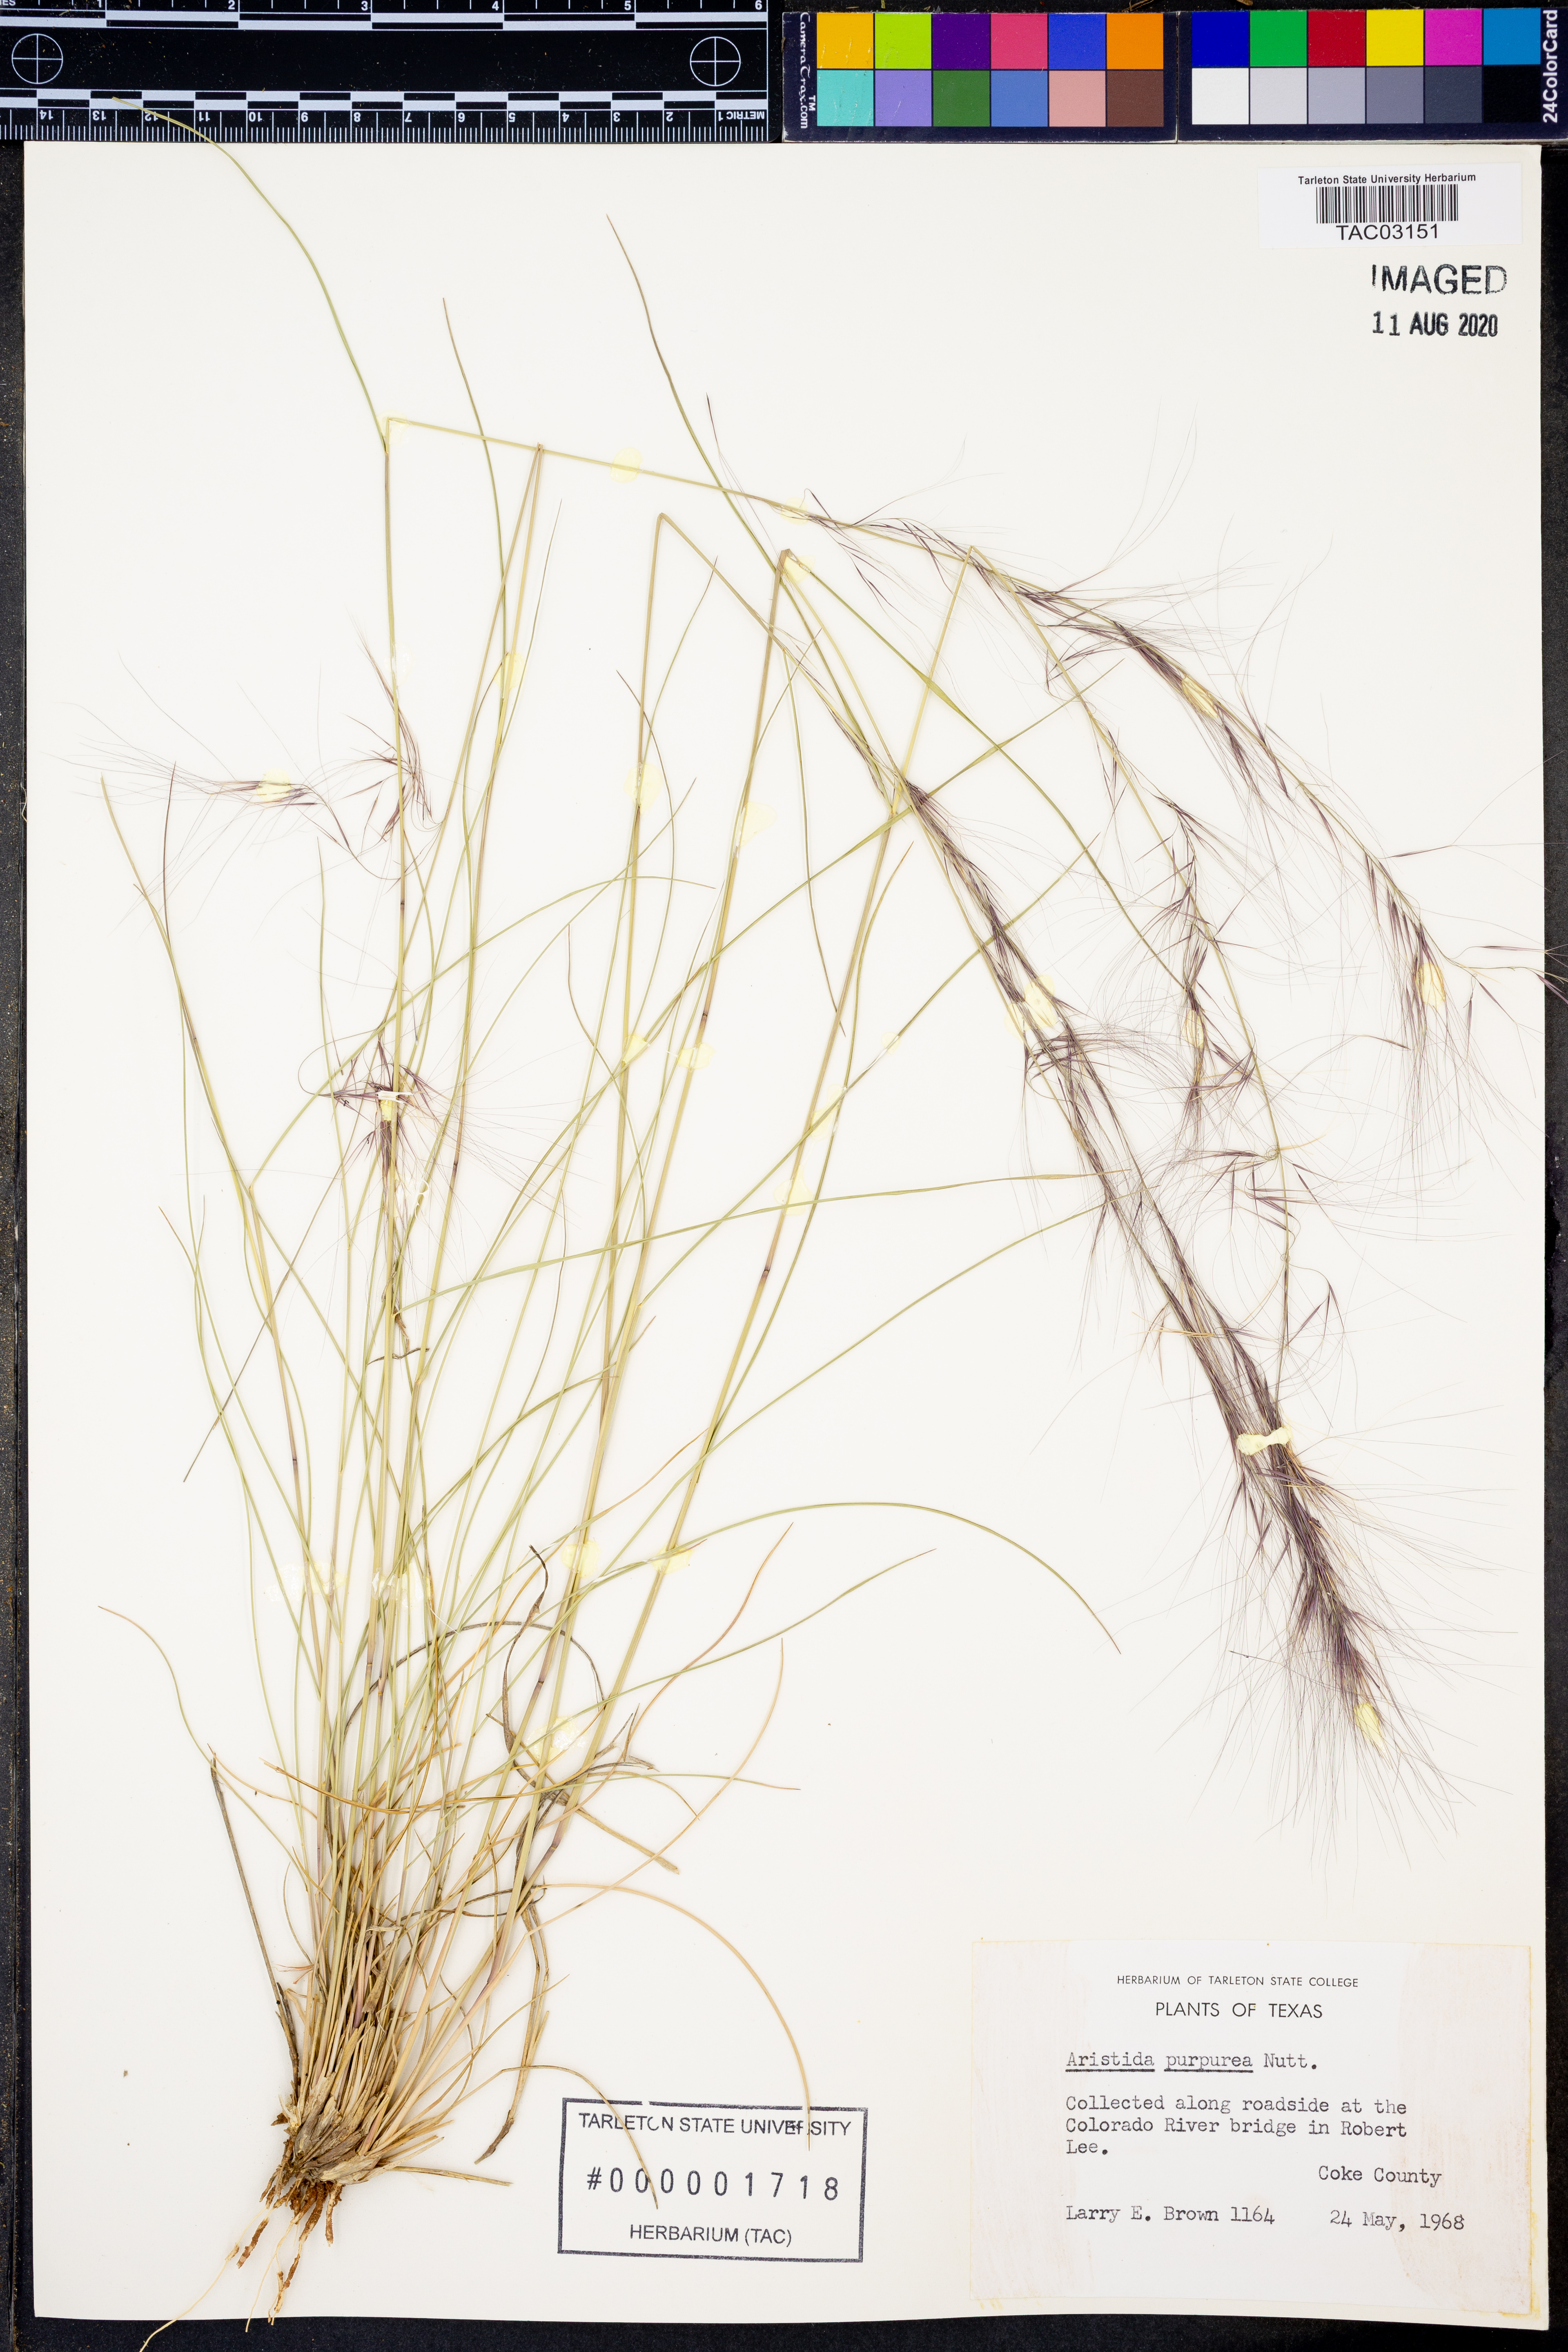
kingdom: Plantae
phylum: Tracheophyta
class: Liliopsida
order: Poales
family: Poaceae
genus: Aristida
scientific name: Aristida purpurea
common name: Purple threeawn
